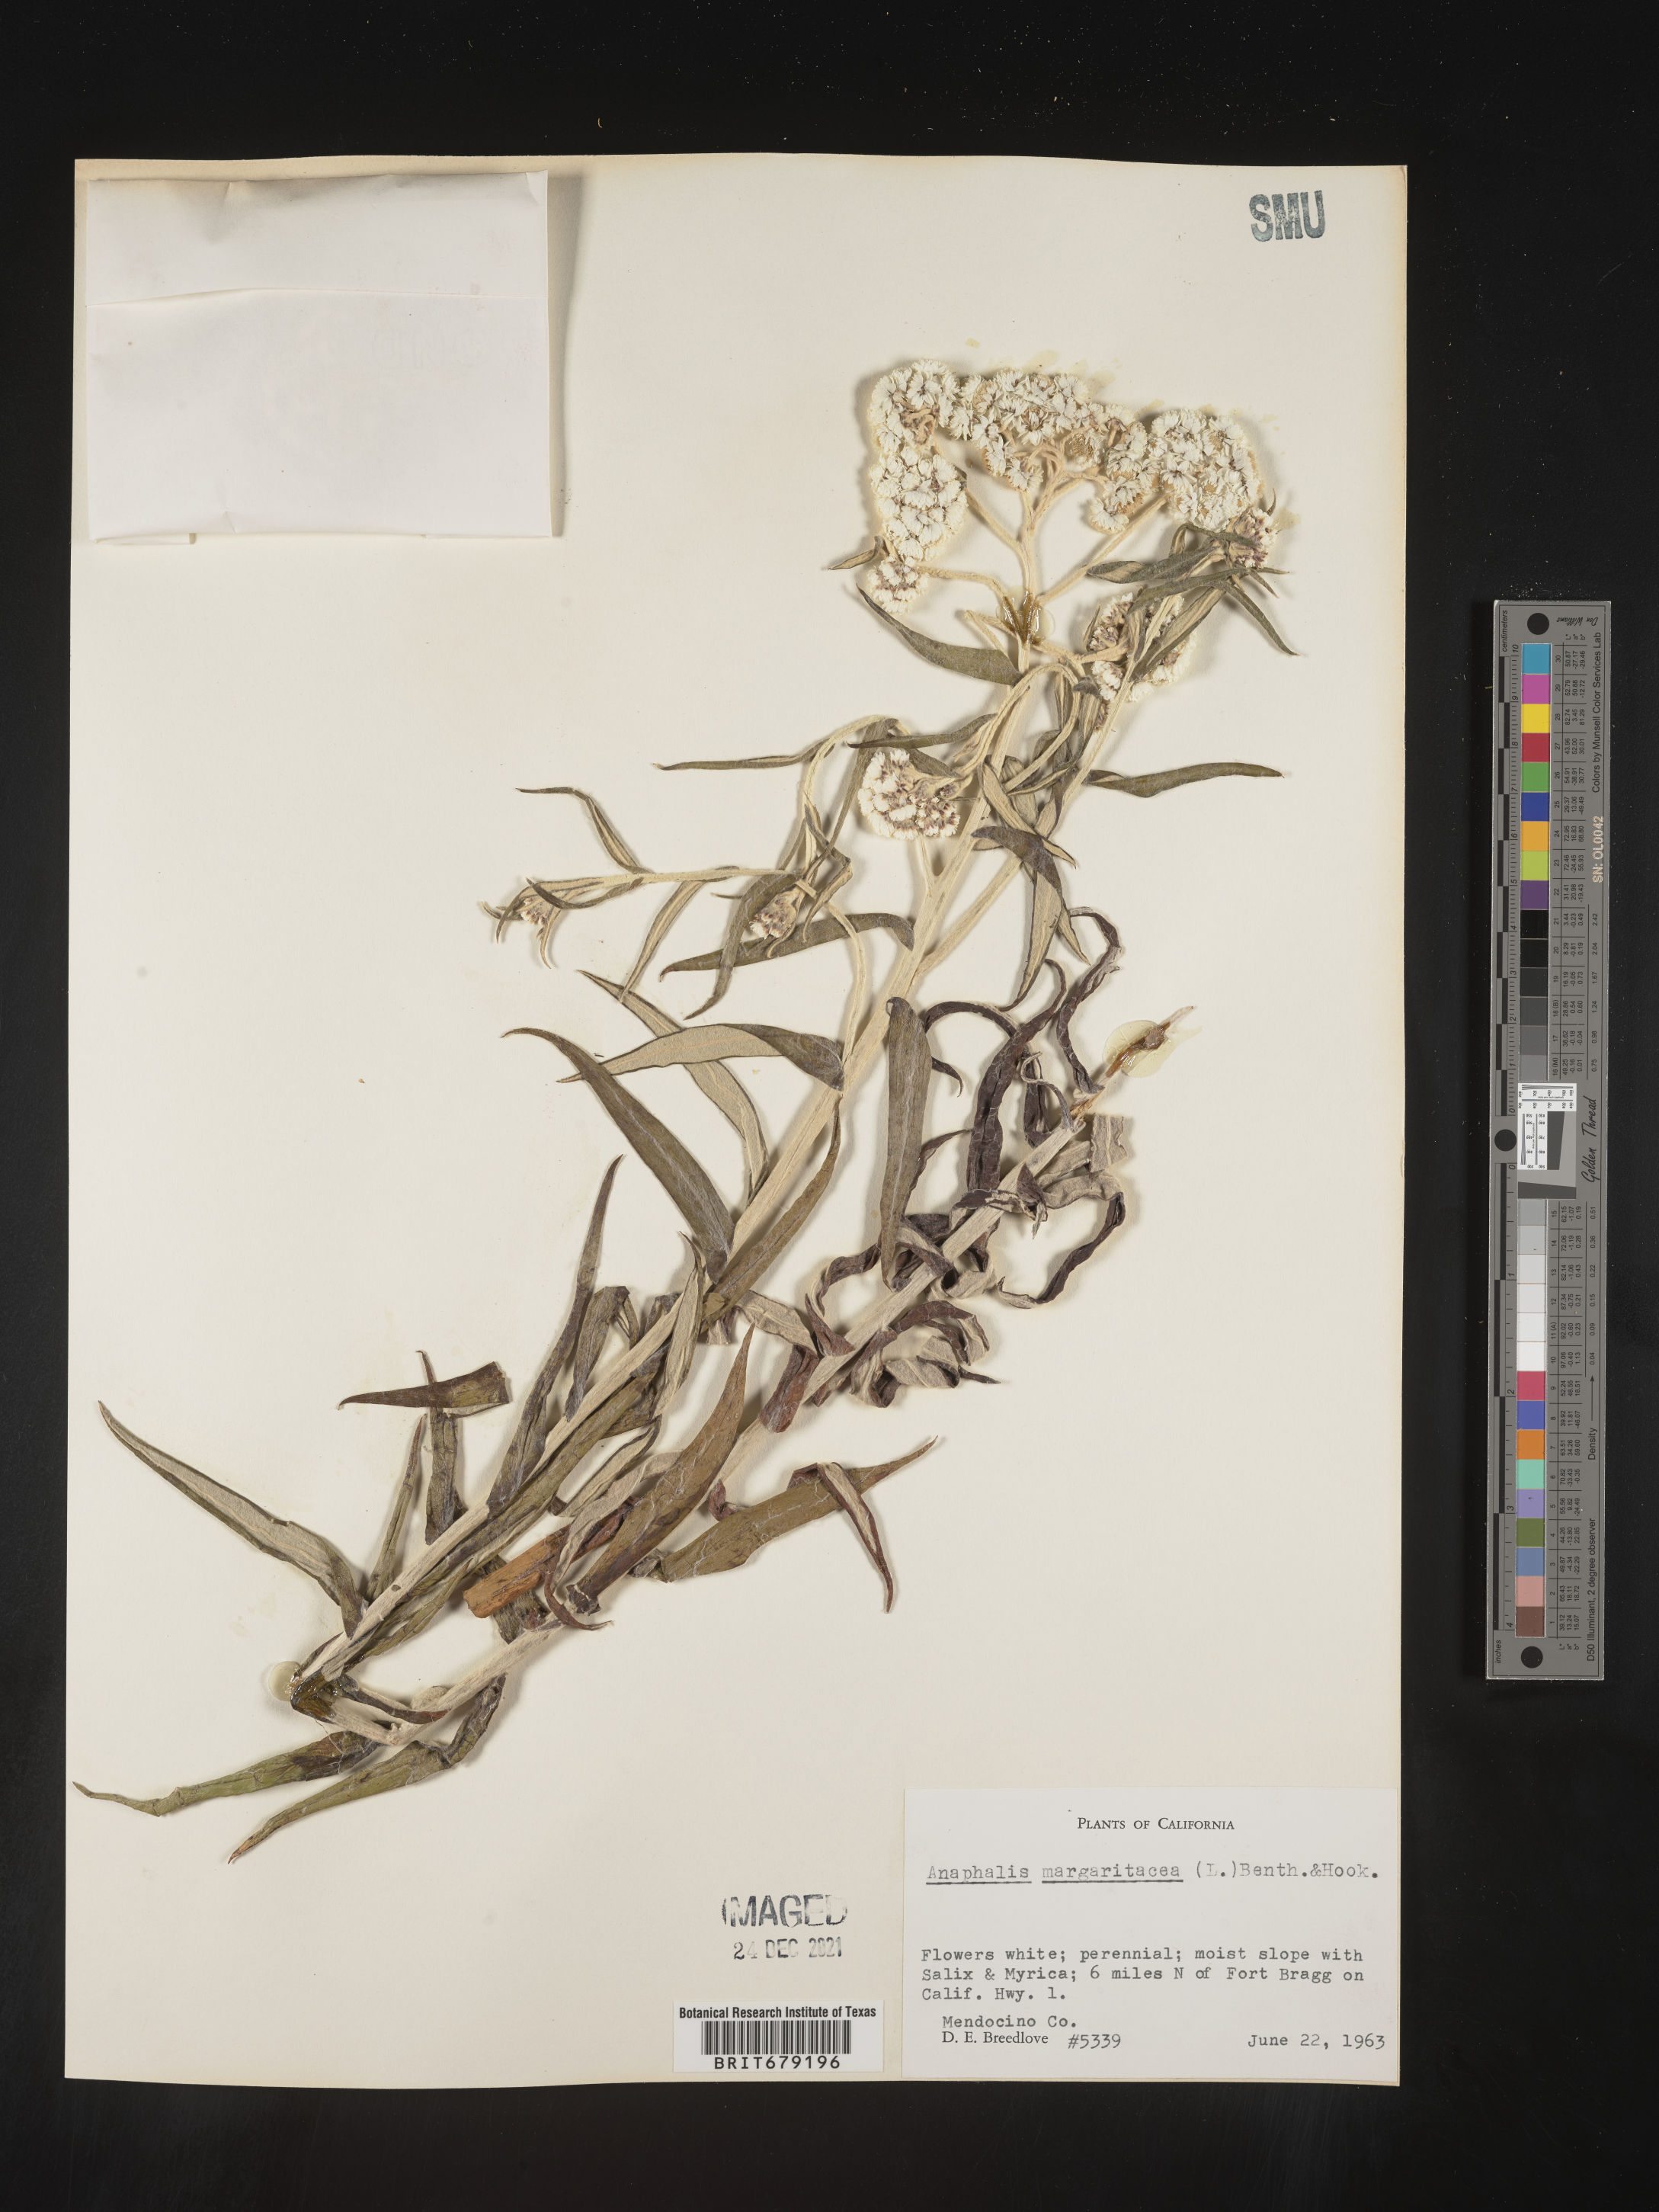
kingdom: Plantae
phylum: Tracheophyta
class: Magnoliopsida
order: Asterales
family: Asteraceae
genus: Anaphalis
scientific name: Anaphalis margaritacea
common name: Pearly everlasting
